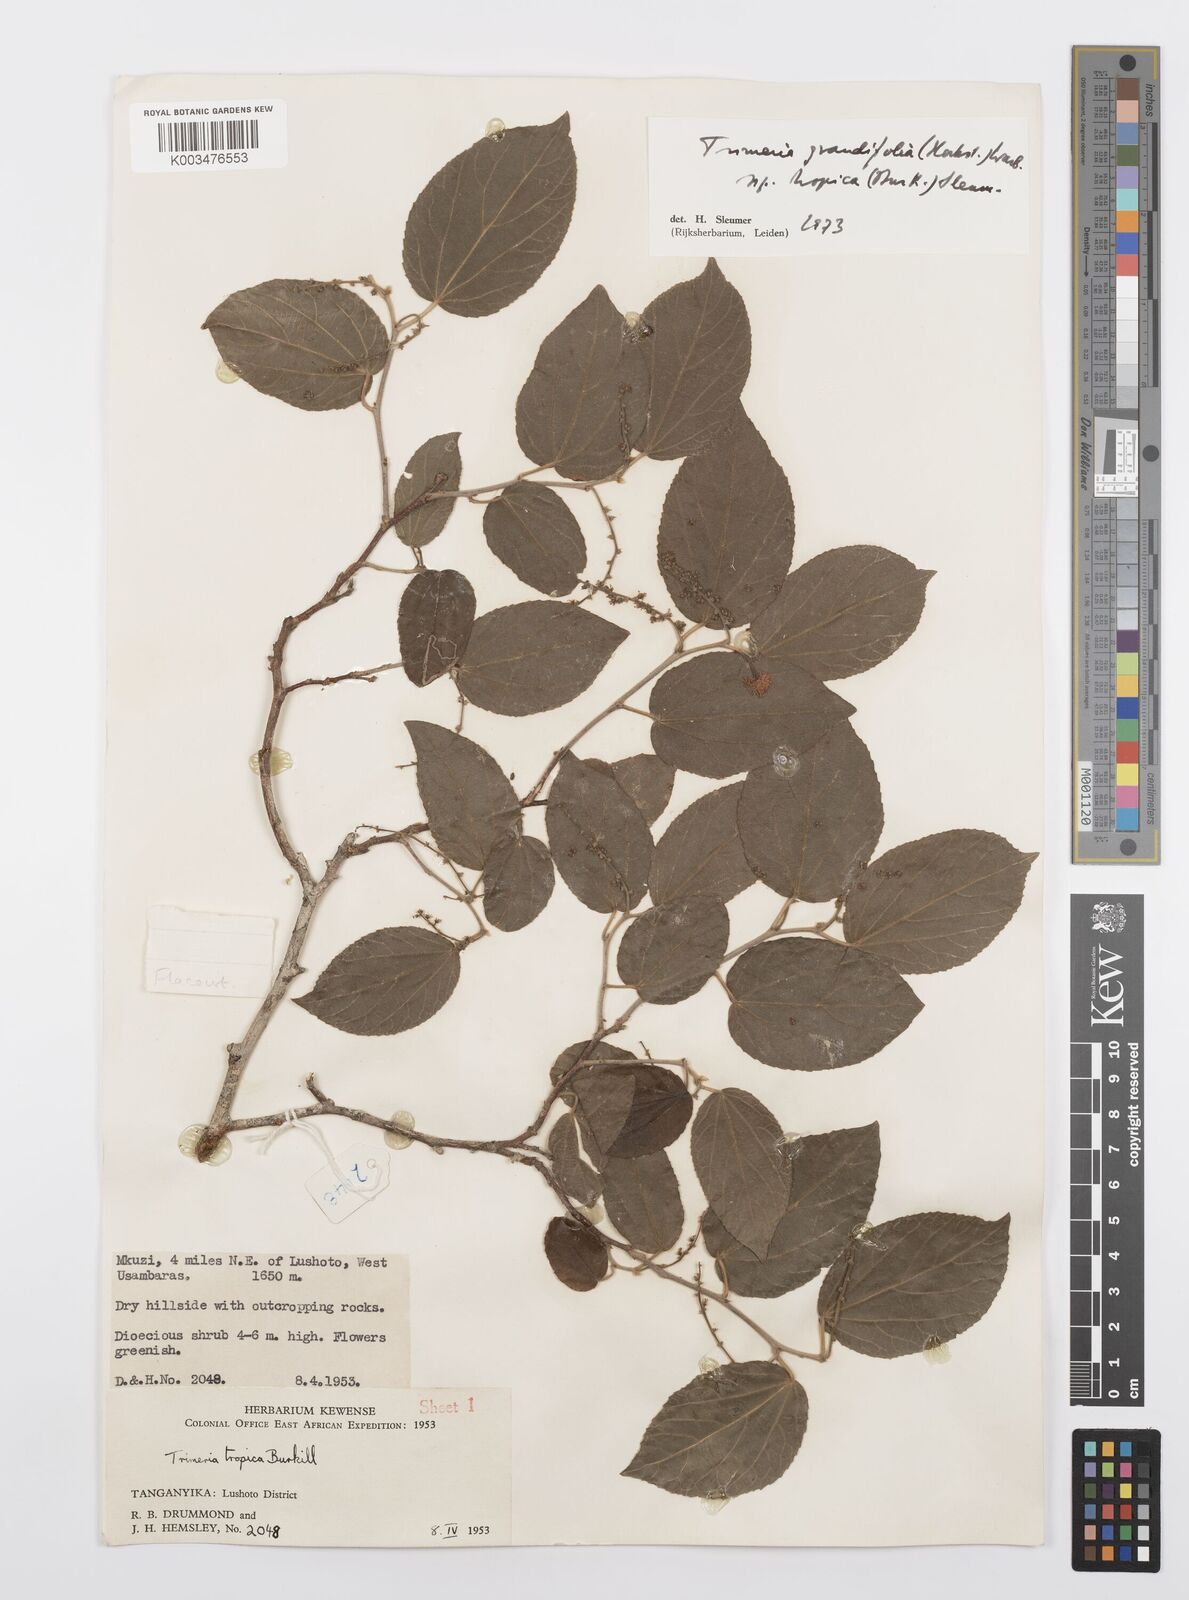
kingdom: Plantae
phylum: Tracheophyta
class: Magnoliopsida
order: Malpighiales
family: Salicaceae
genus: Trimeria
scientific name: Trimeria grandifolia
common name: Wild mulberry
